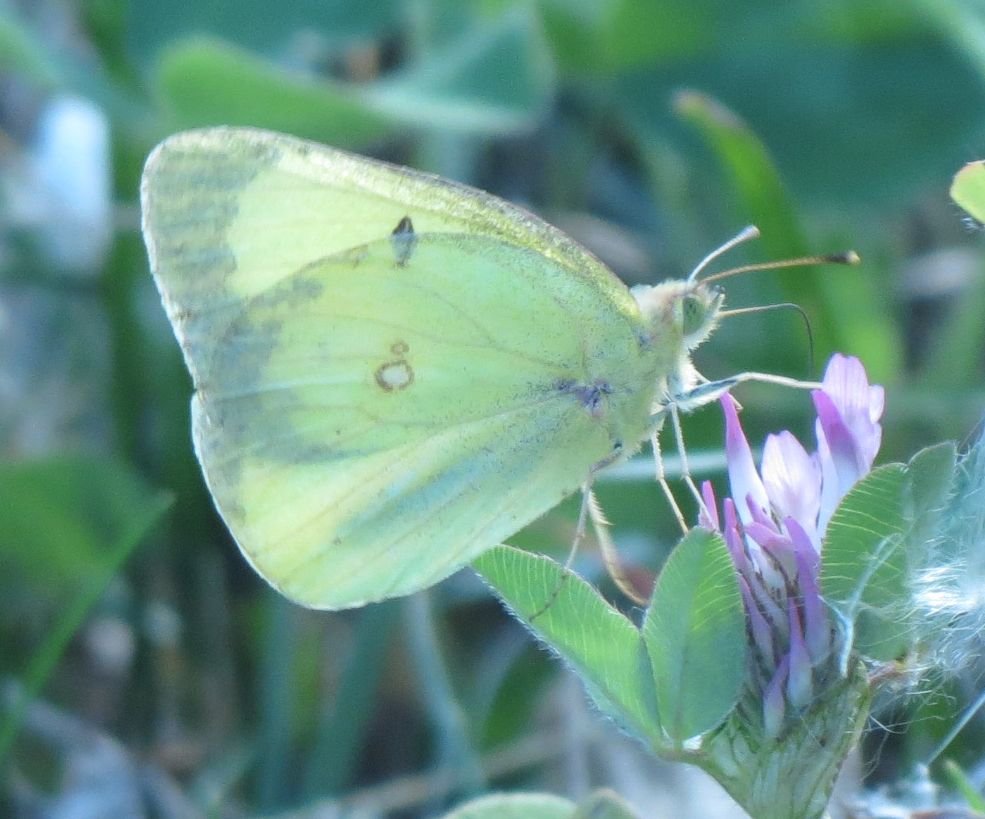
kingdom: Animalia
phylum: Arthropoda
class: Insecta
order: Lepidoptera
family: Pieridae
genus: Colias
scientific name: Colias philodice
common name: Clouded Sulphur
